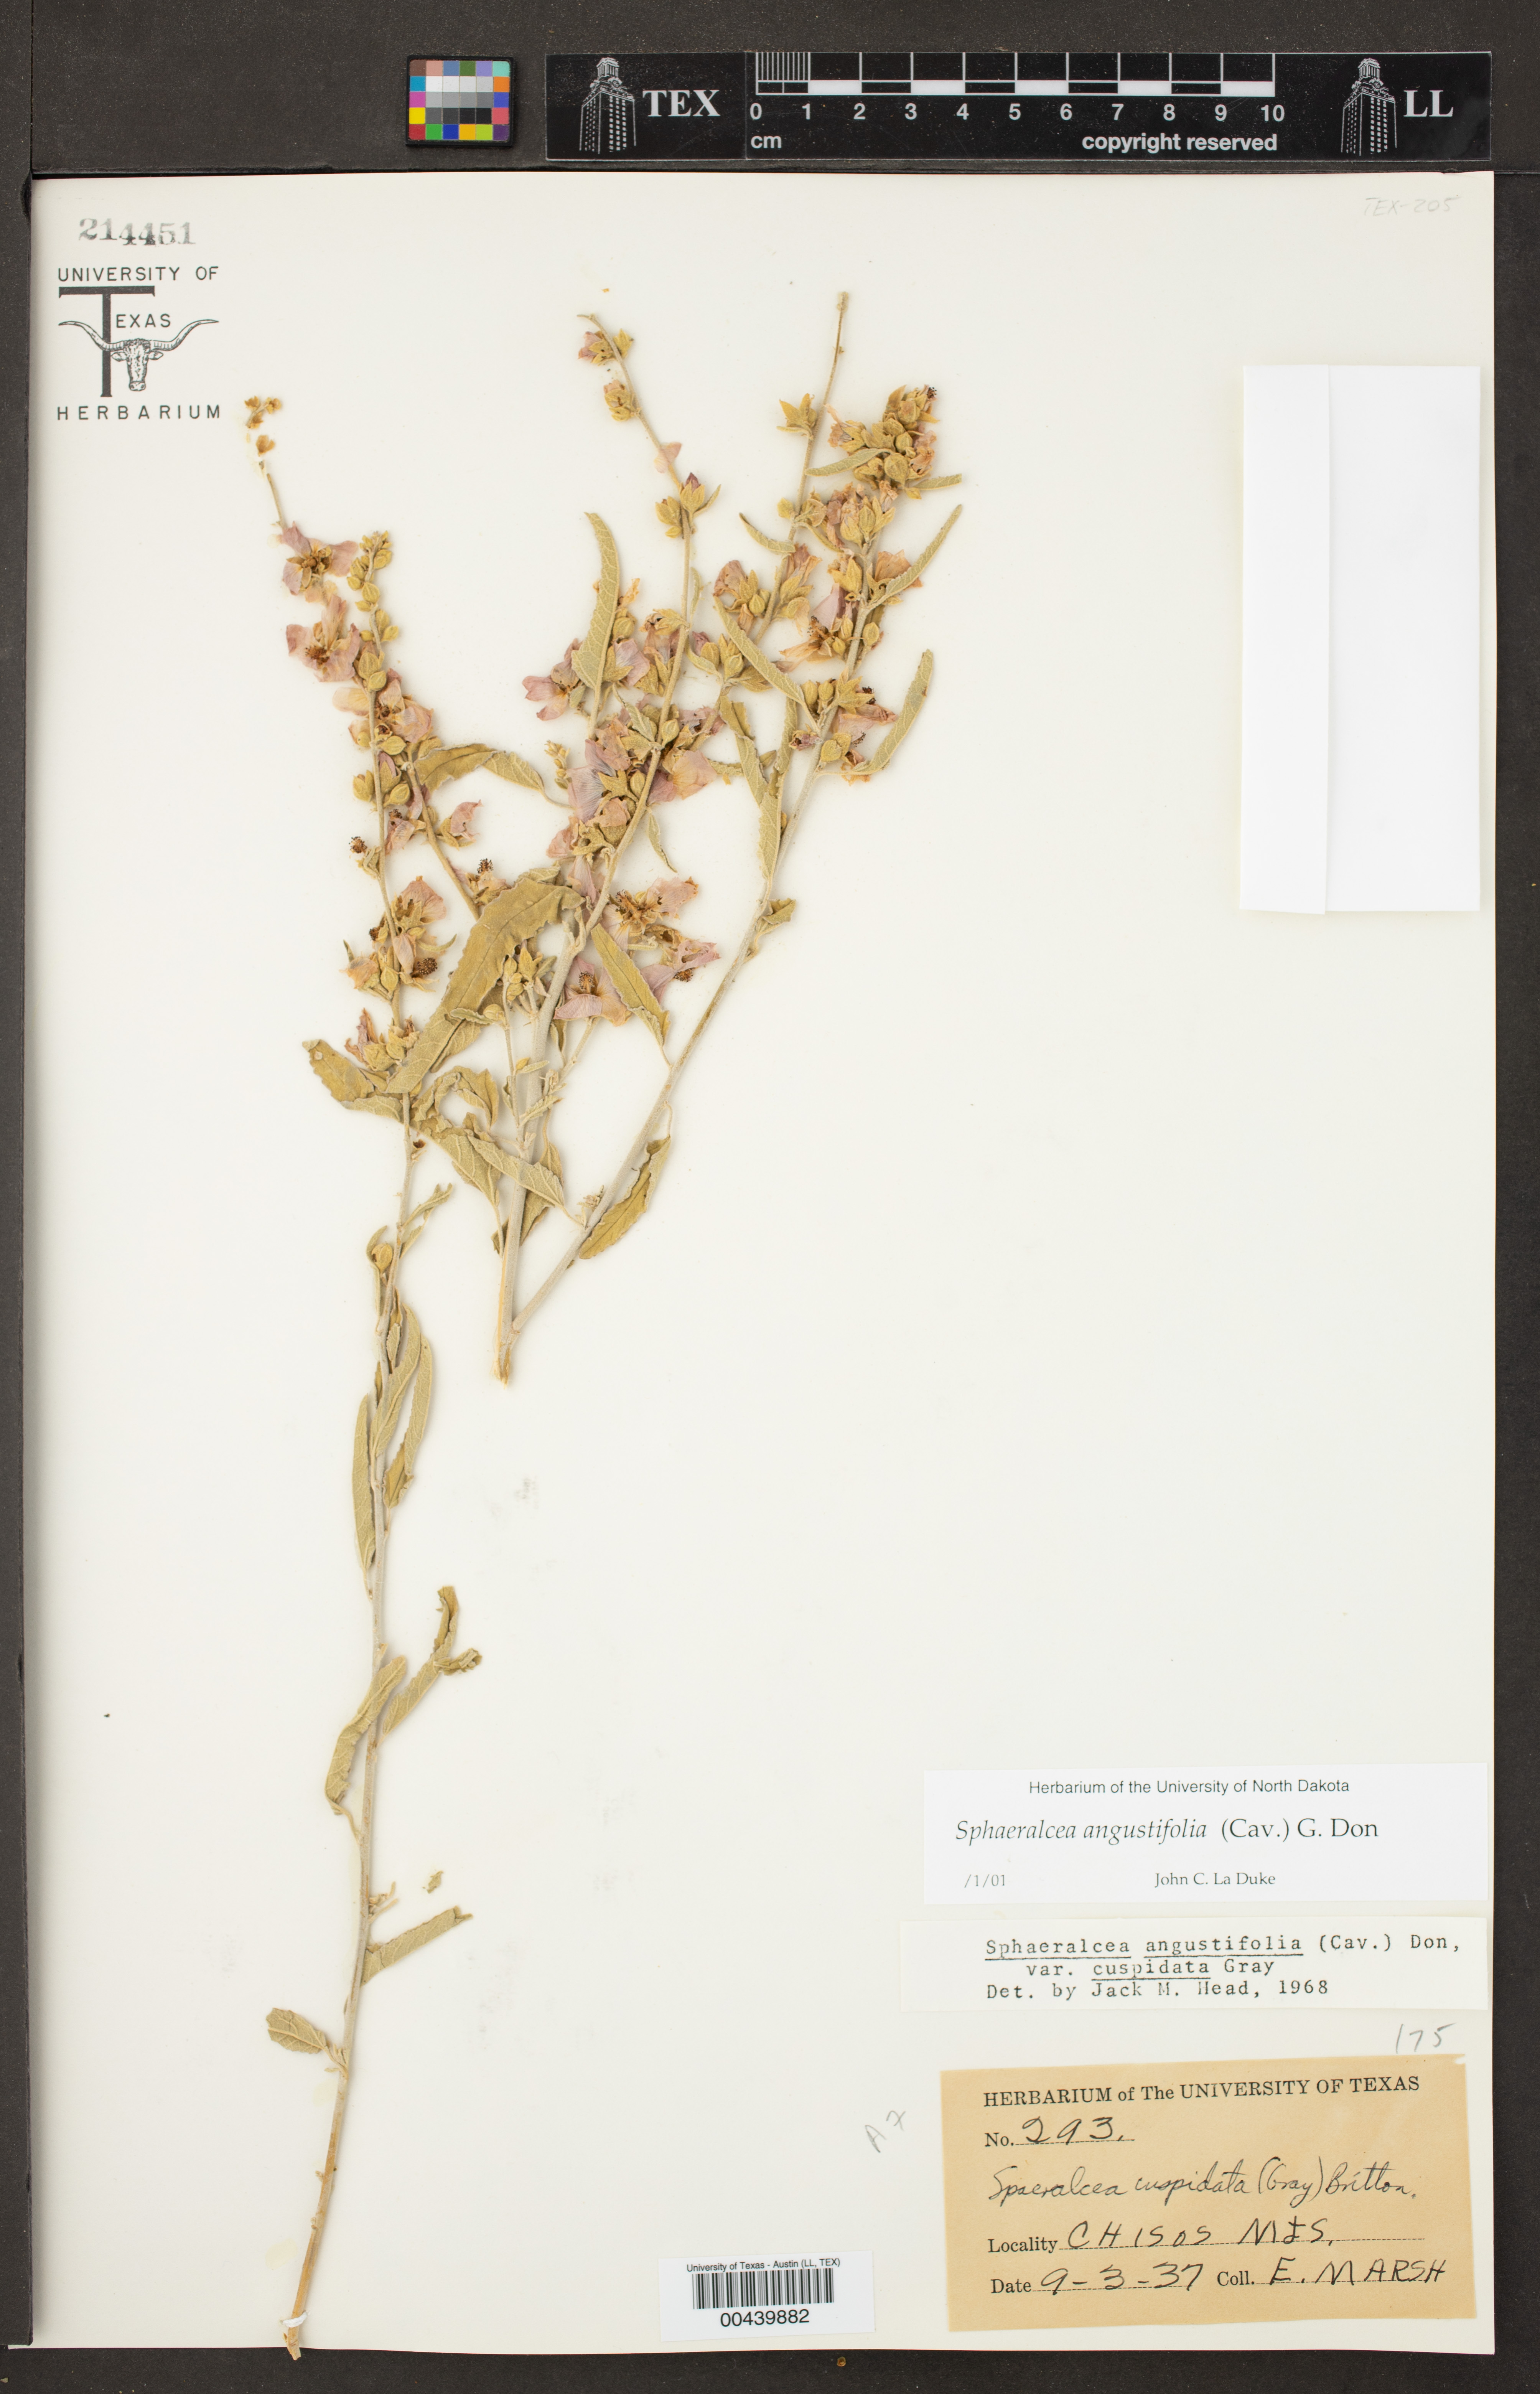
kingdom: Plantae
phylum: Tracheophyta
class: Magnoliopsida
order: Malvales
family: Malvaceae
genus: Sphaeralcea
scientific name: Sphaeralcea angustifolia
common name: Copper globe-mallow
